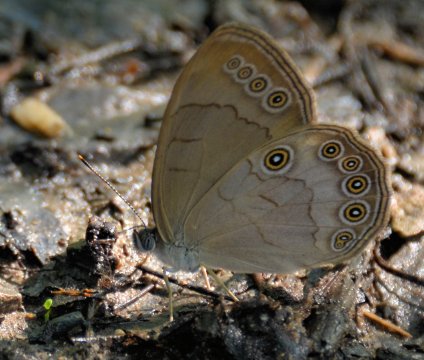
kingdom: Animalia
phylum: Arthropoda
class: Insecta
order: Lepidoptera
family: Nymphalidae
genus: Lethe
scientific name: Lethe eurydice
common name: Appalachian Eyed Brown
